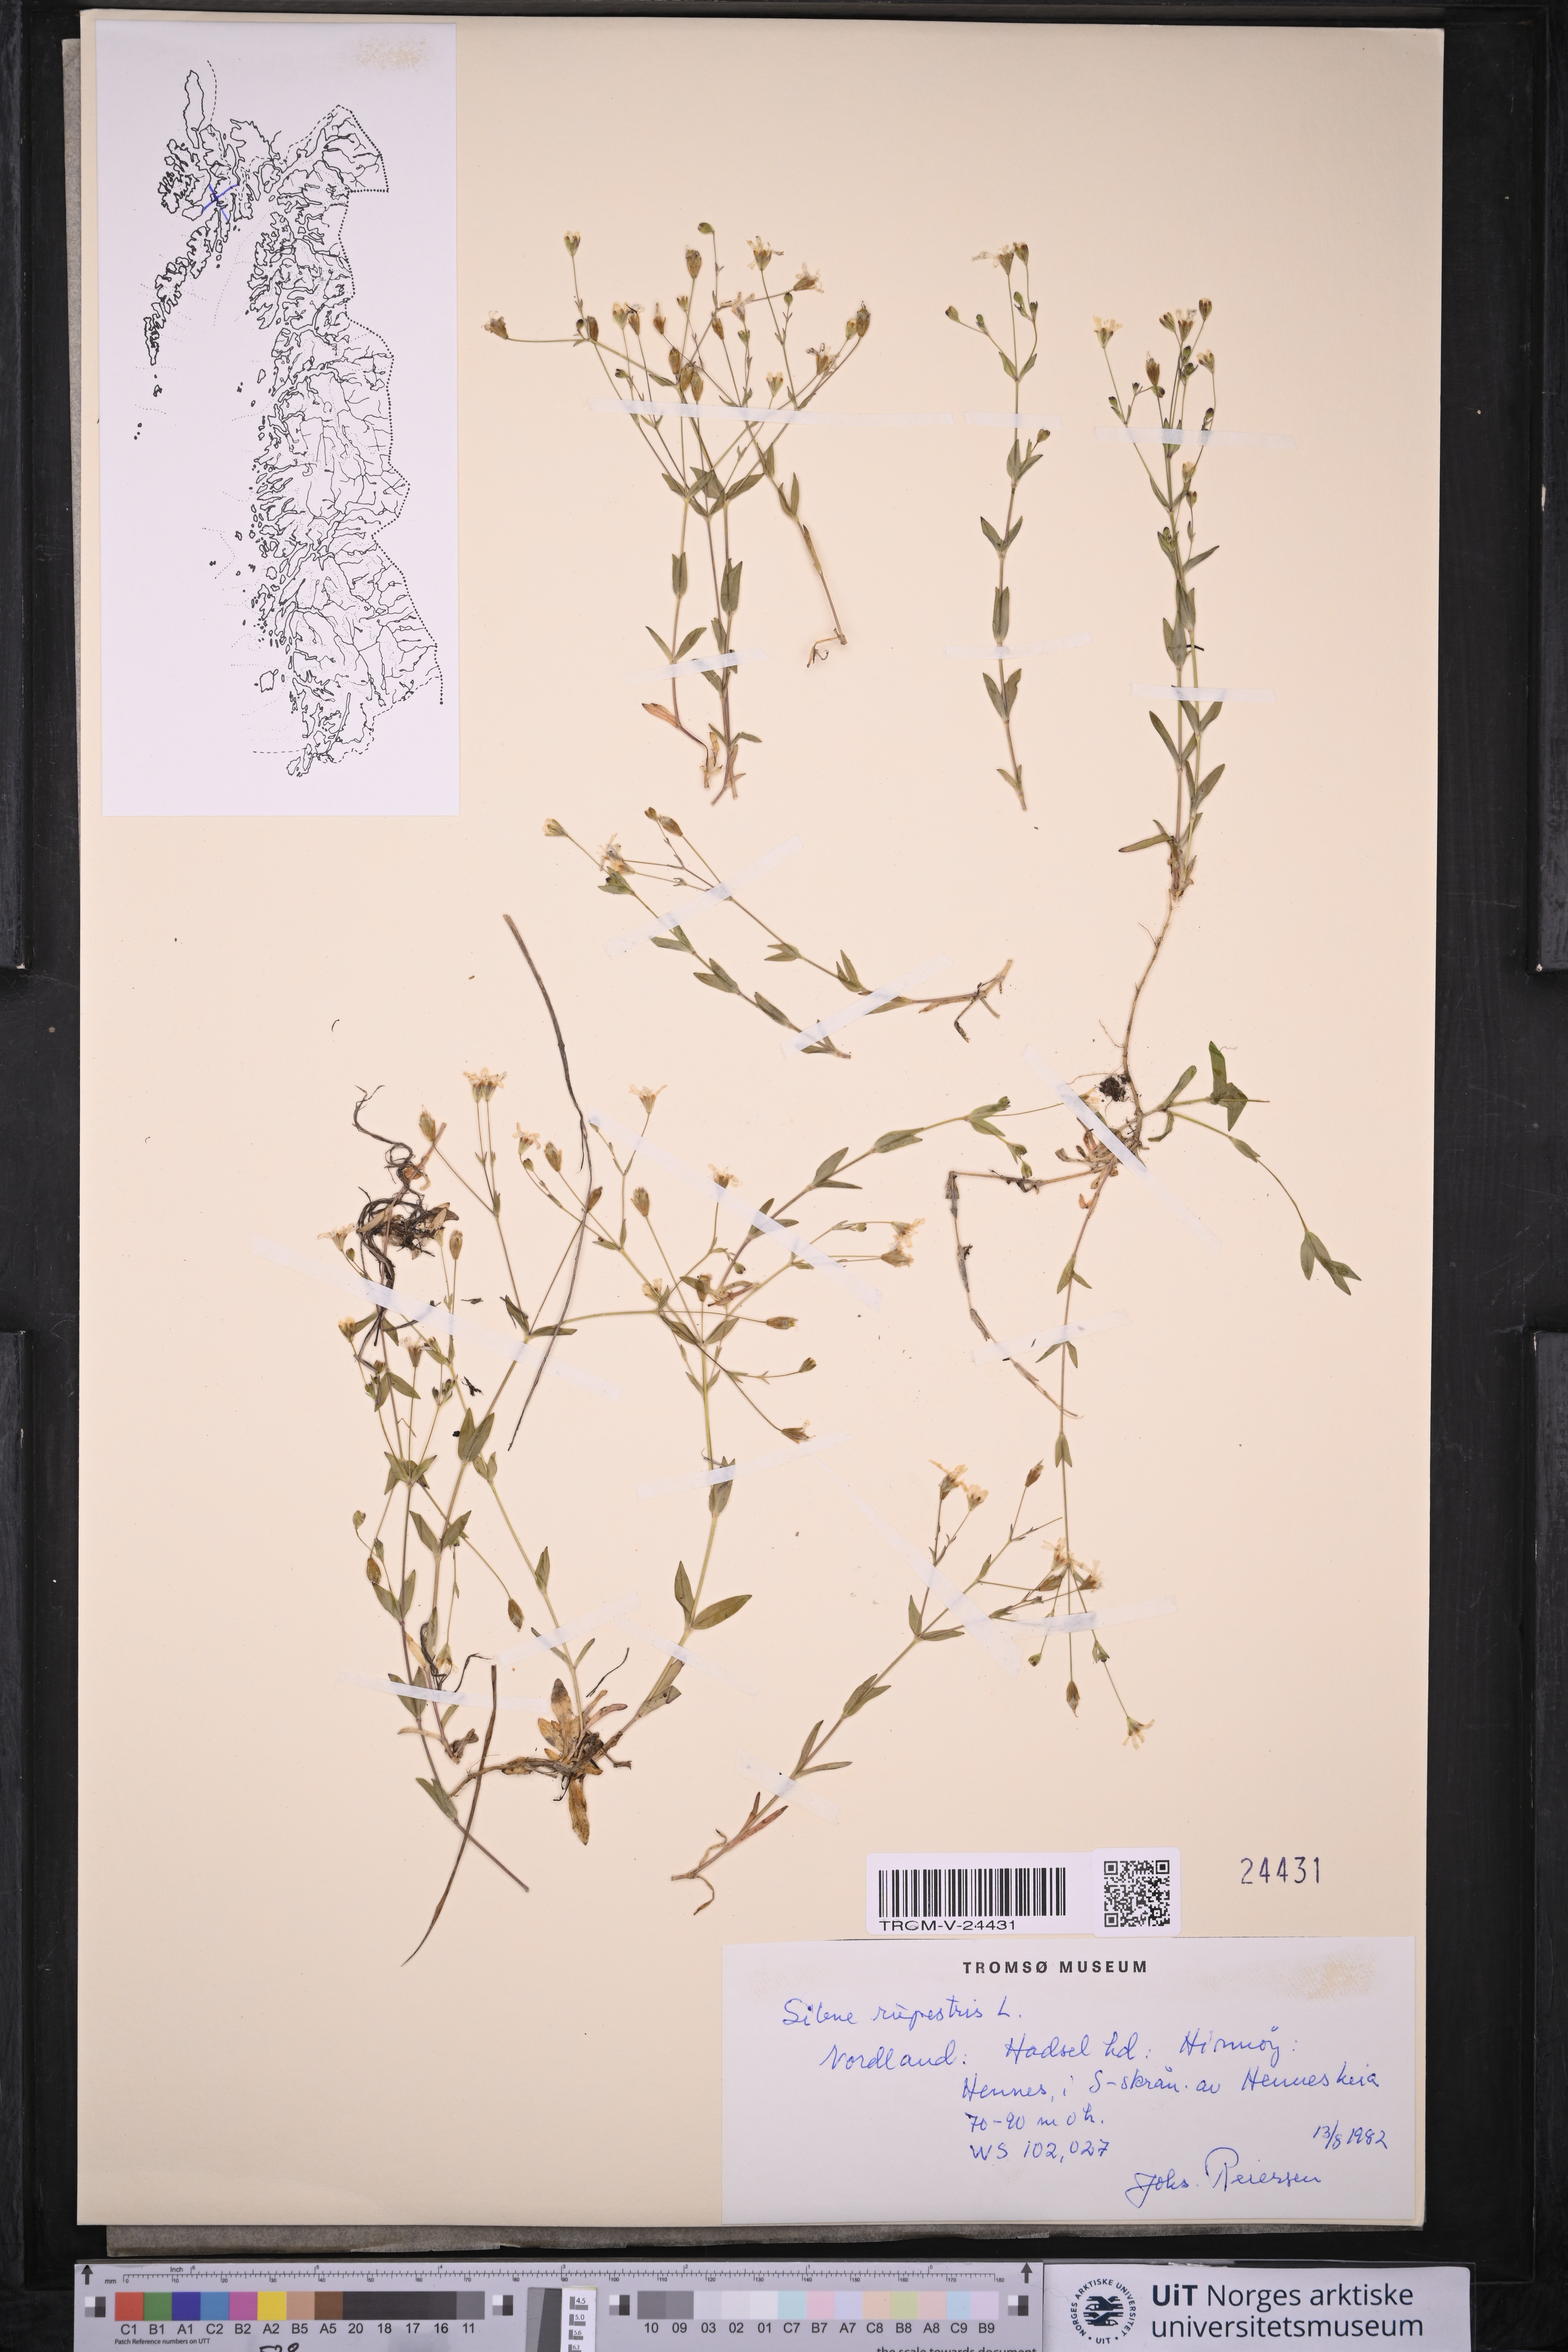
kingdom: Plantae
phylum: Tracheophyta
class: Magnoliopsida
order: Caryophyllales
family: Caryophyllaceae
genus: Atocion
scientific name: Atocion rupestre
